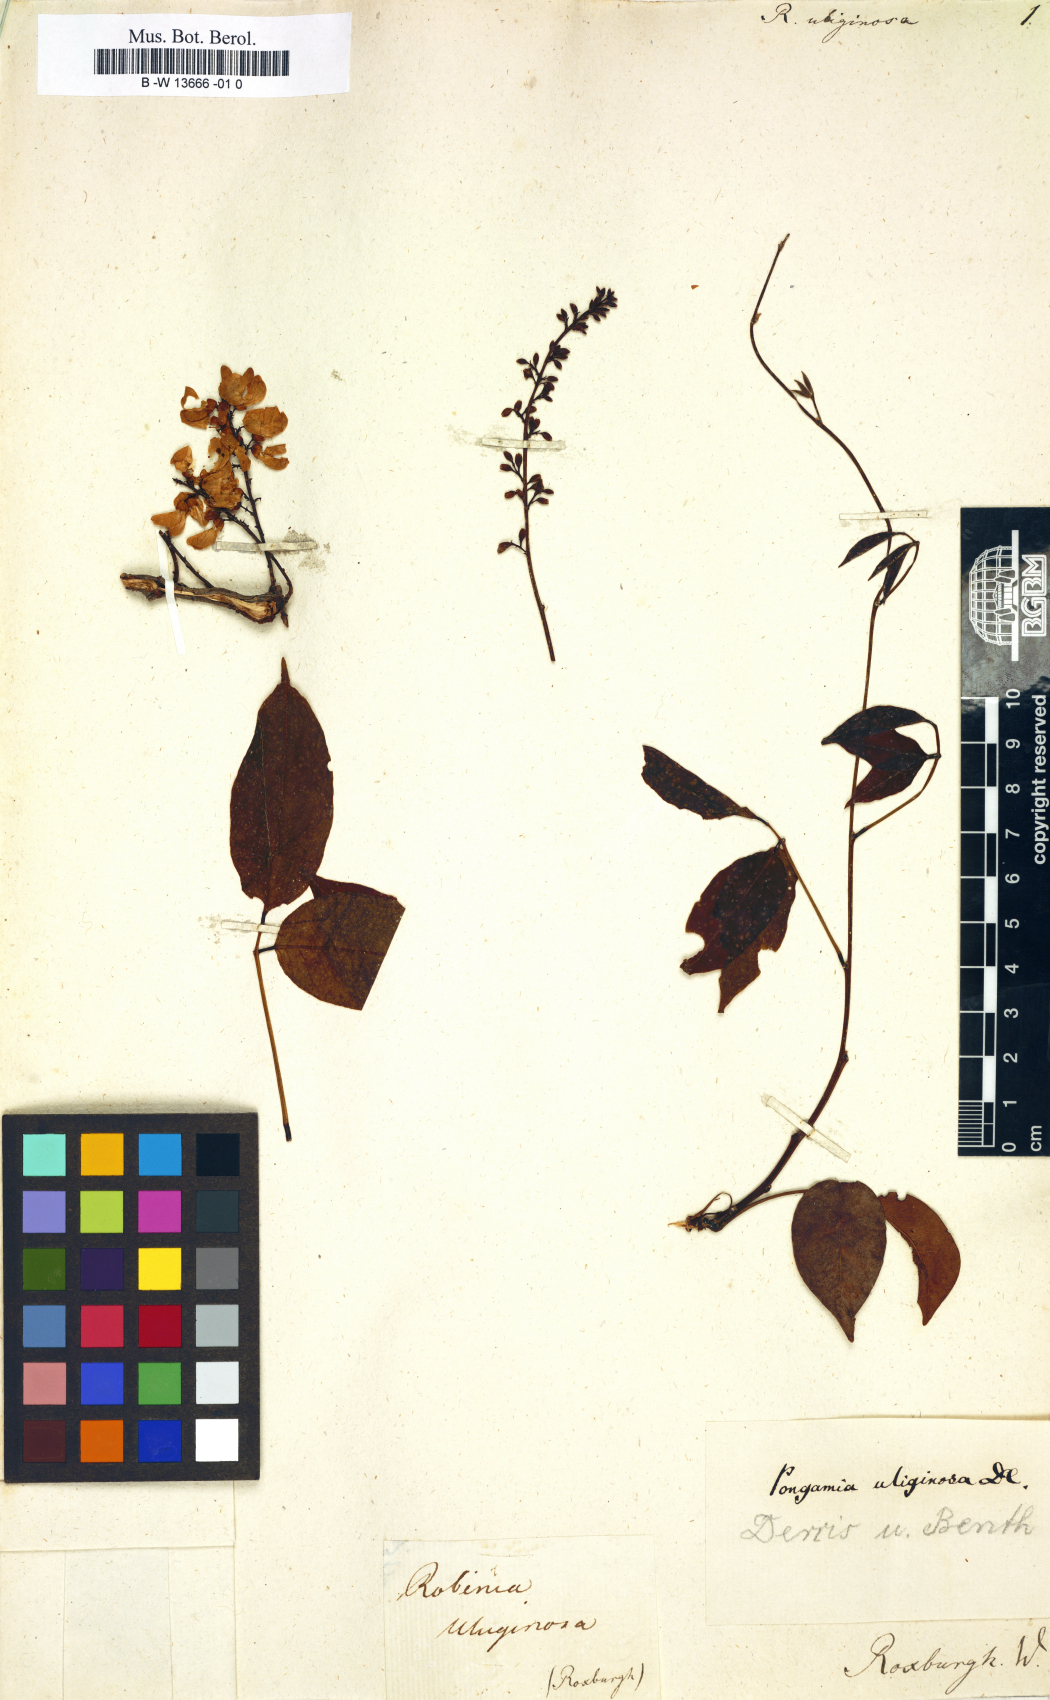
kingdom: Plantae
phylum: Tracheophyta
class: Magnoliopsida
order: Fabales
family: Fabaceae
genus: Derris
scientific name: Derris trifoliata
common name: Three-leaf derris
